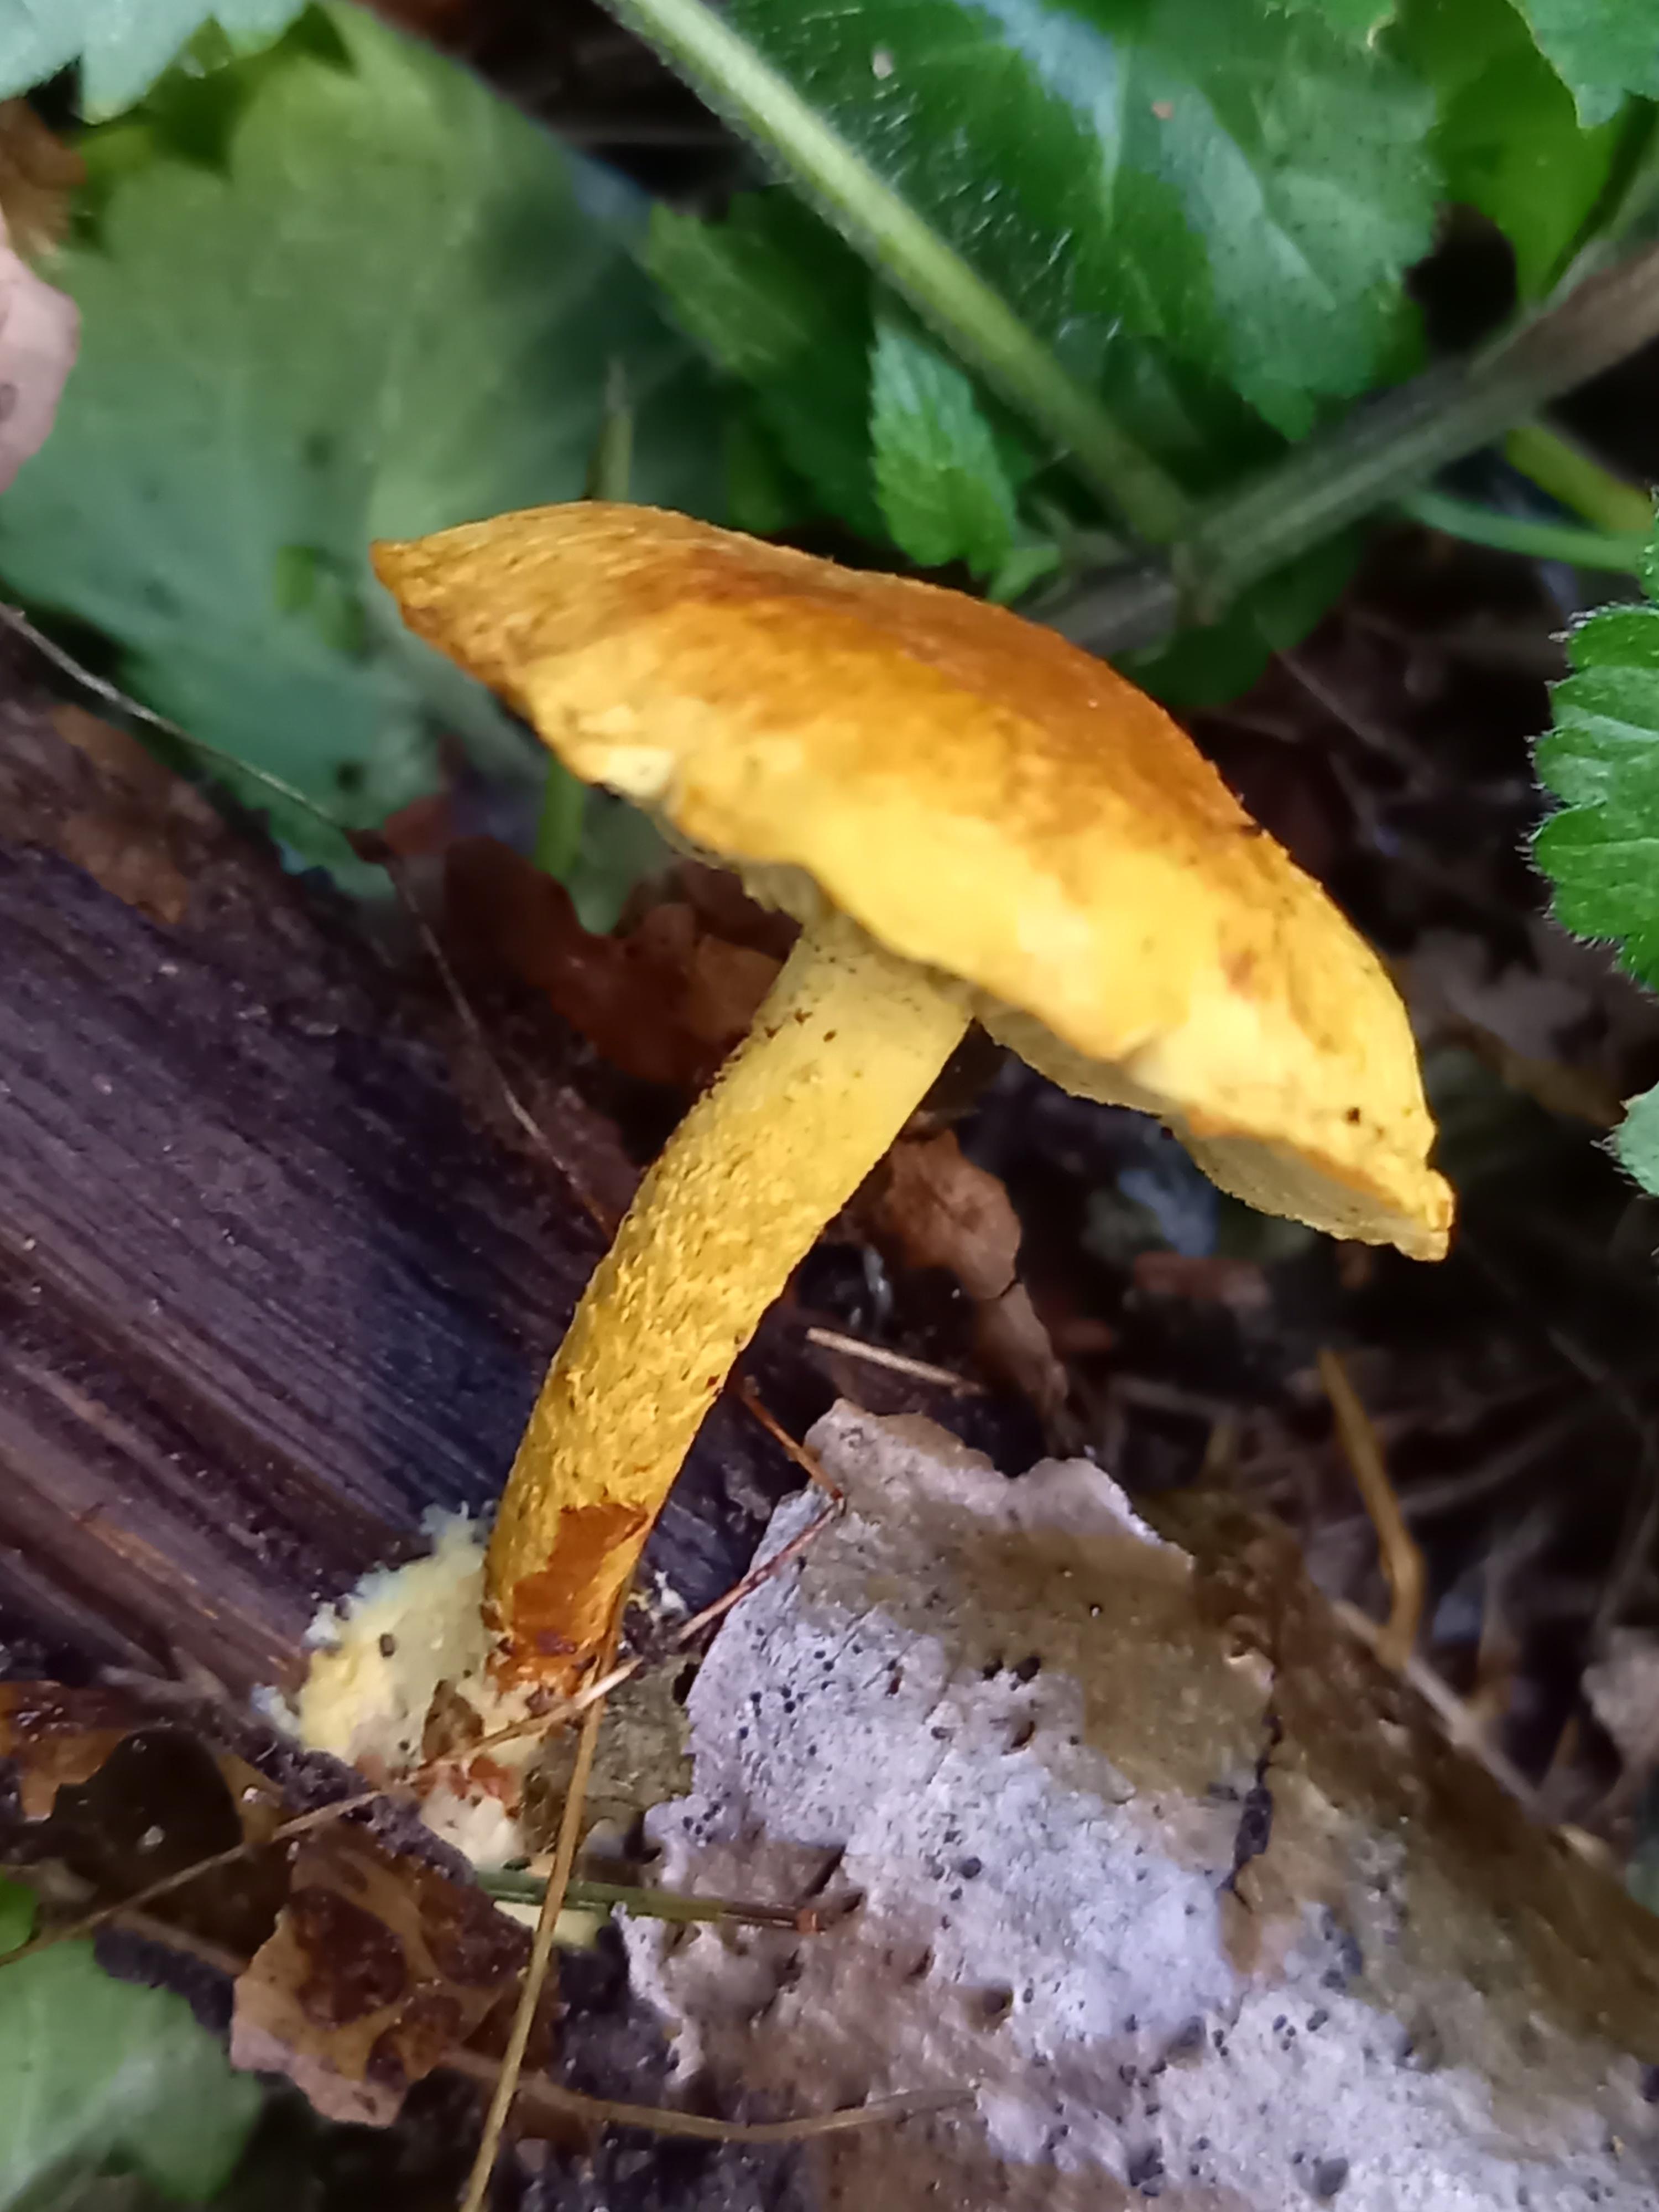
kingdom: Fungi
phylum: Basidiomycota
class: Agaricomycetes
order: Agaricales
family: Strophariaceae
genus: Pholiota
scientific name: Pholiota tuberculosa
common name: finskællet skælhat
